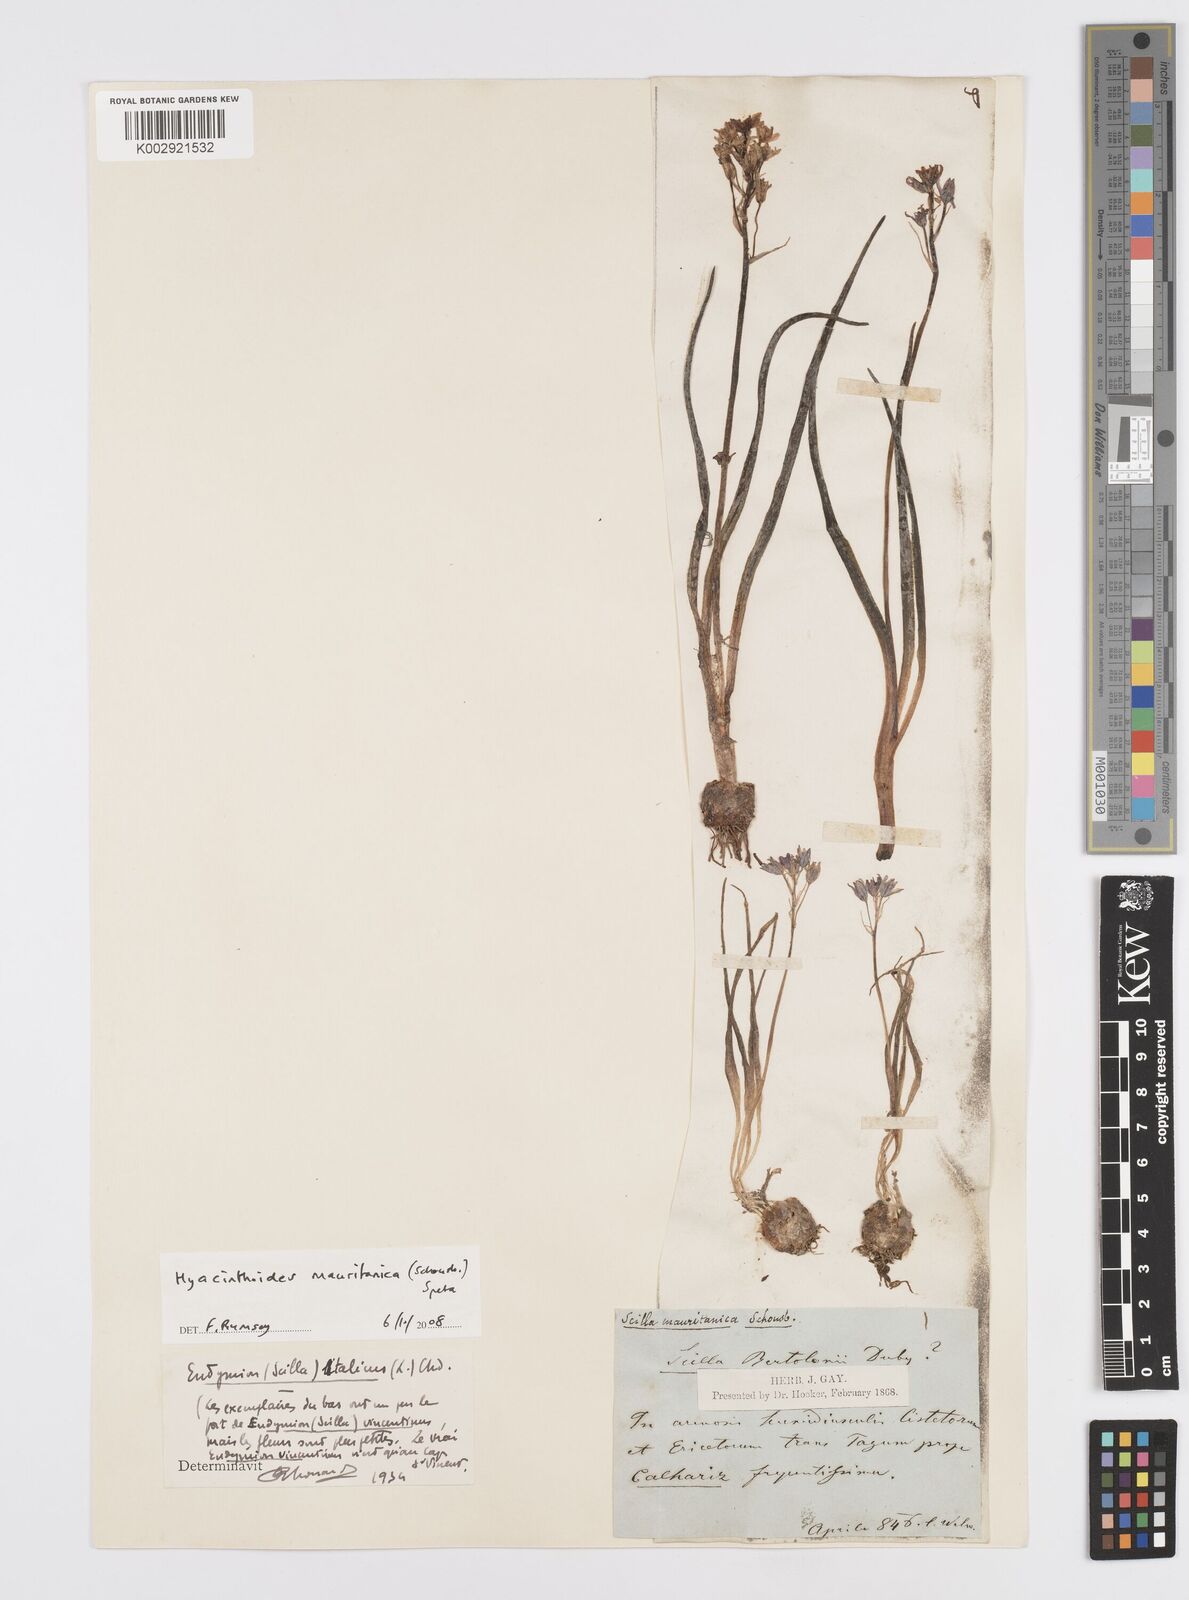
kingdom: Plantae
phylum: Tracheophyta
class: Liliopsida
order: Asparagales
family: Asparagaceae
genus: Hyacinthoides
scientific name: Hyacinthoides mauritanica
